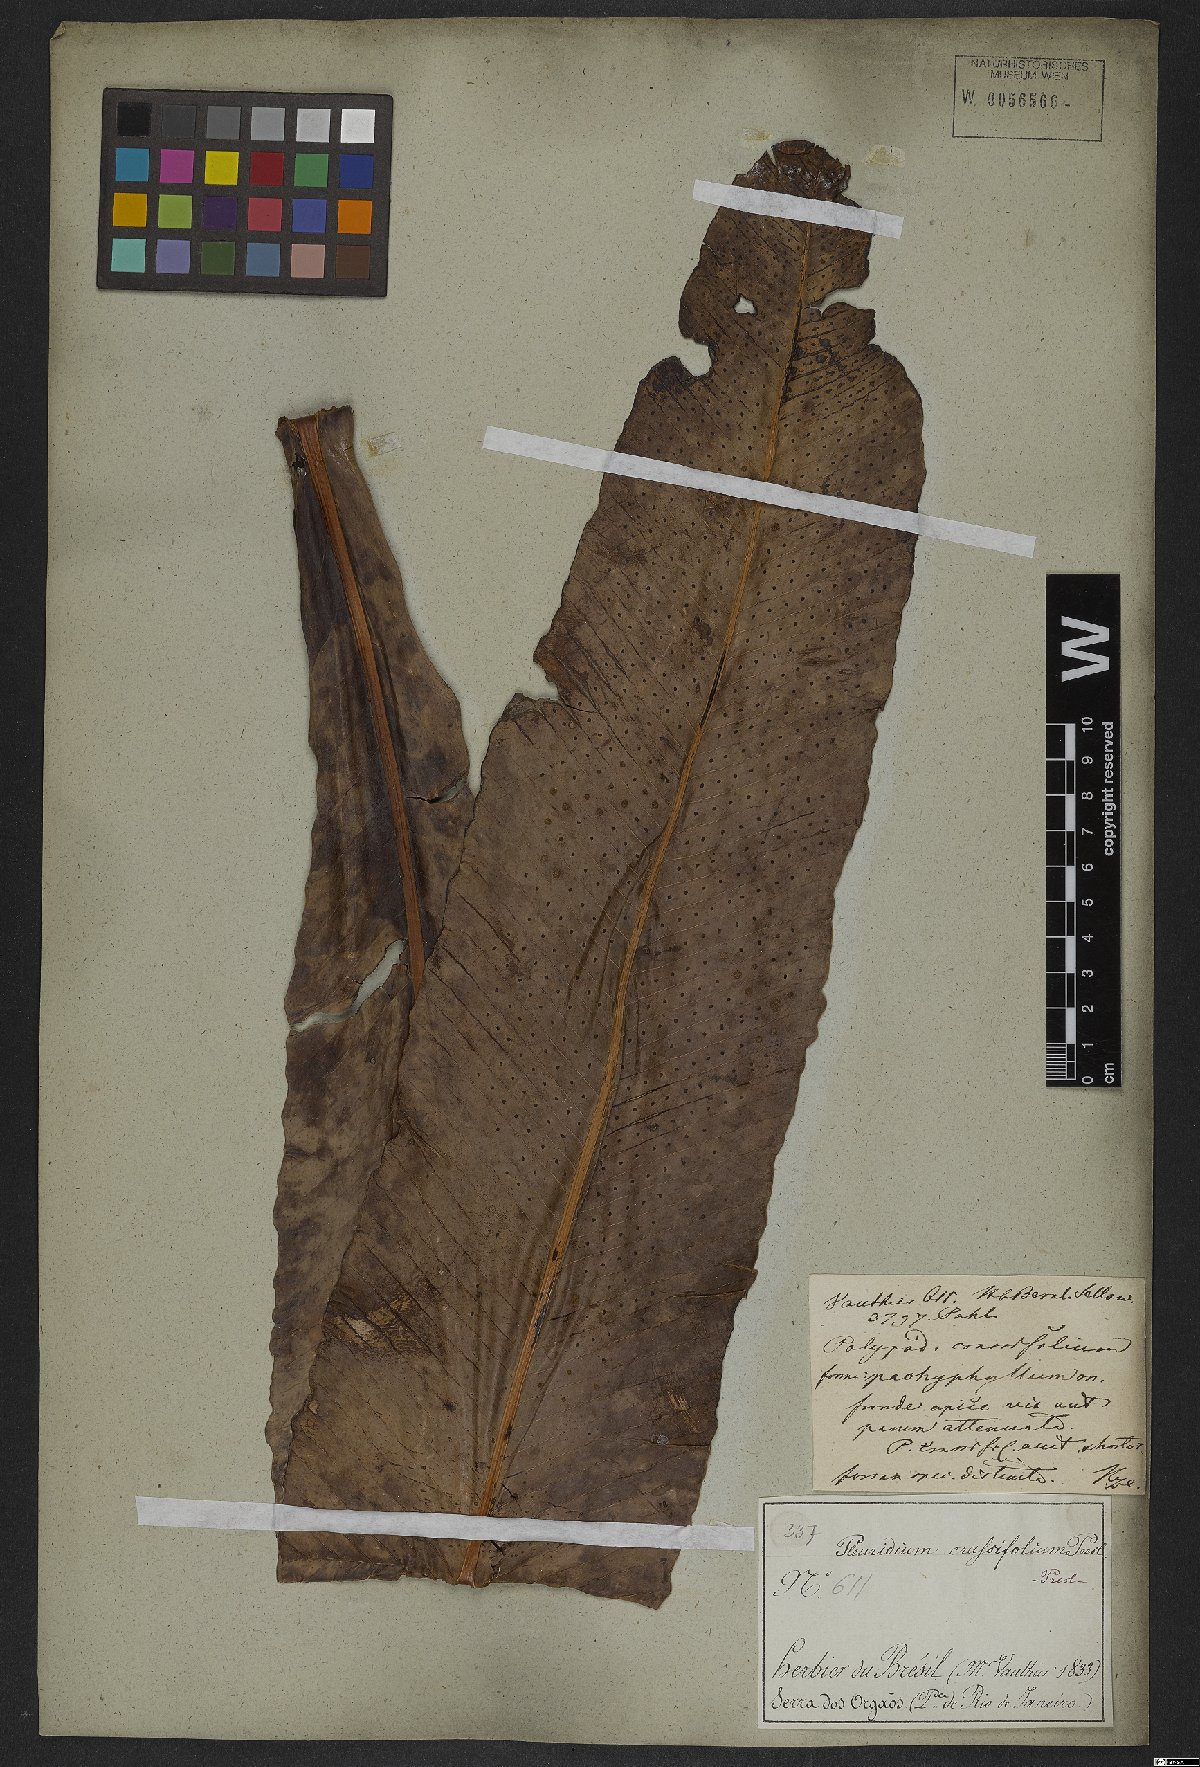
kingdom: Plantae
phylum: Tracheophyta
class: Polypodiopsida
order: Polypodiales
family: Polypodiaceae
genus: Niphidium
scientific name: Niphidium crassifolium
